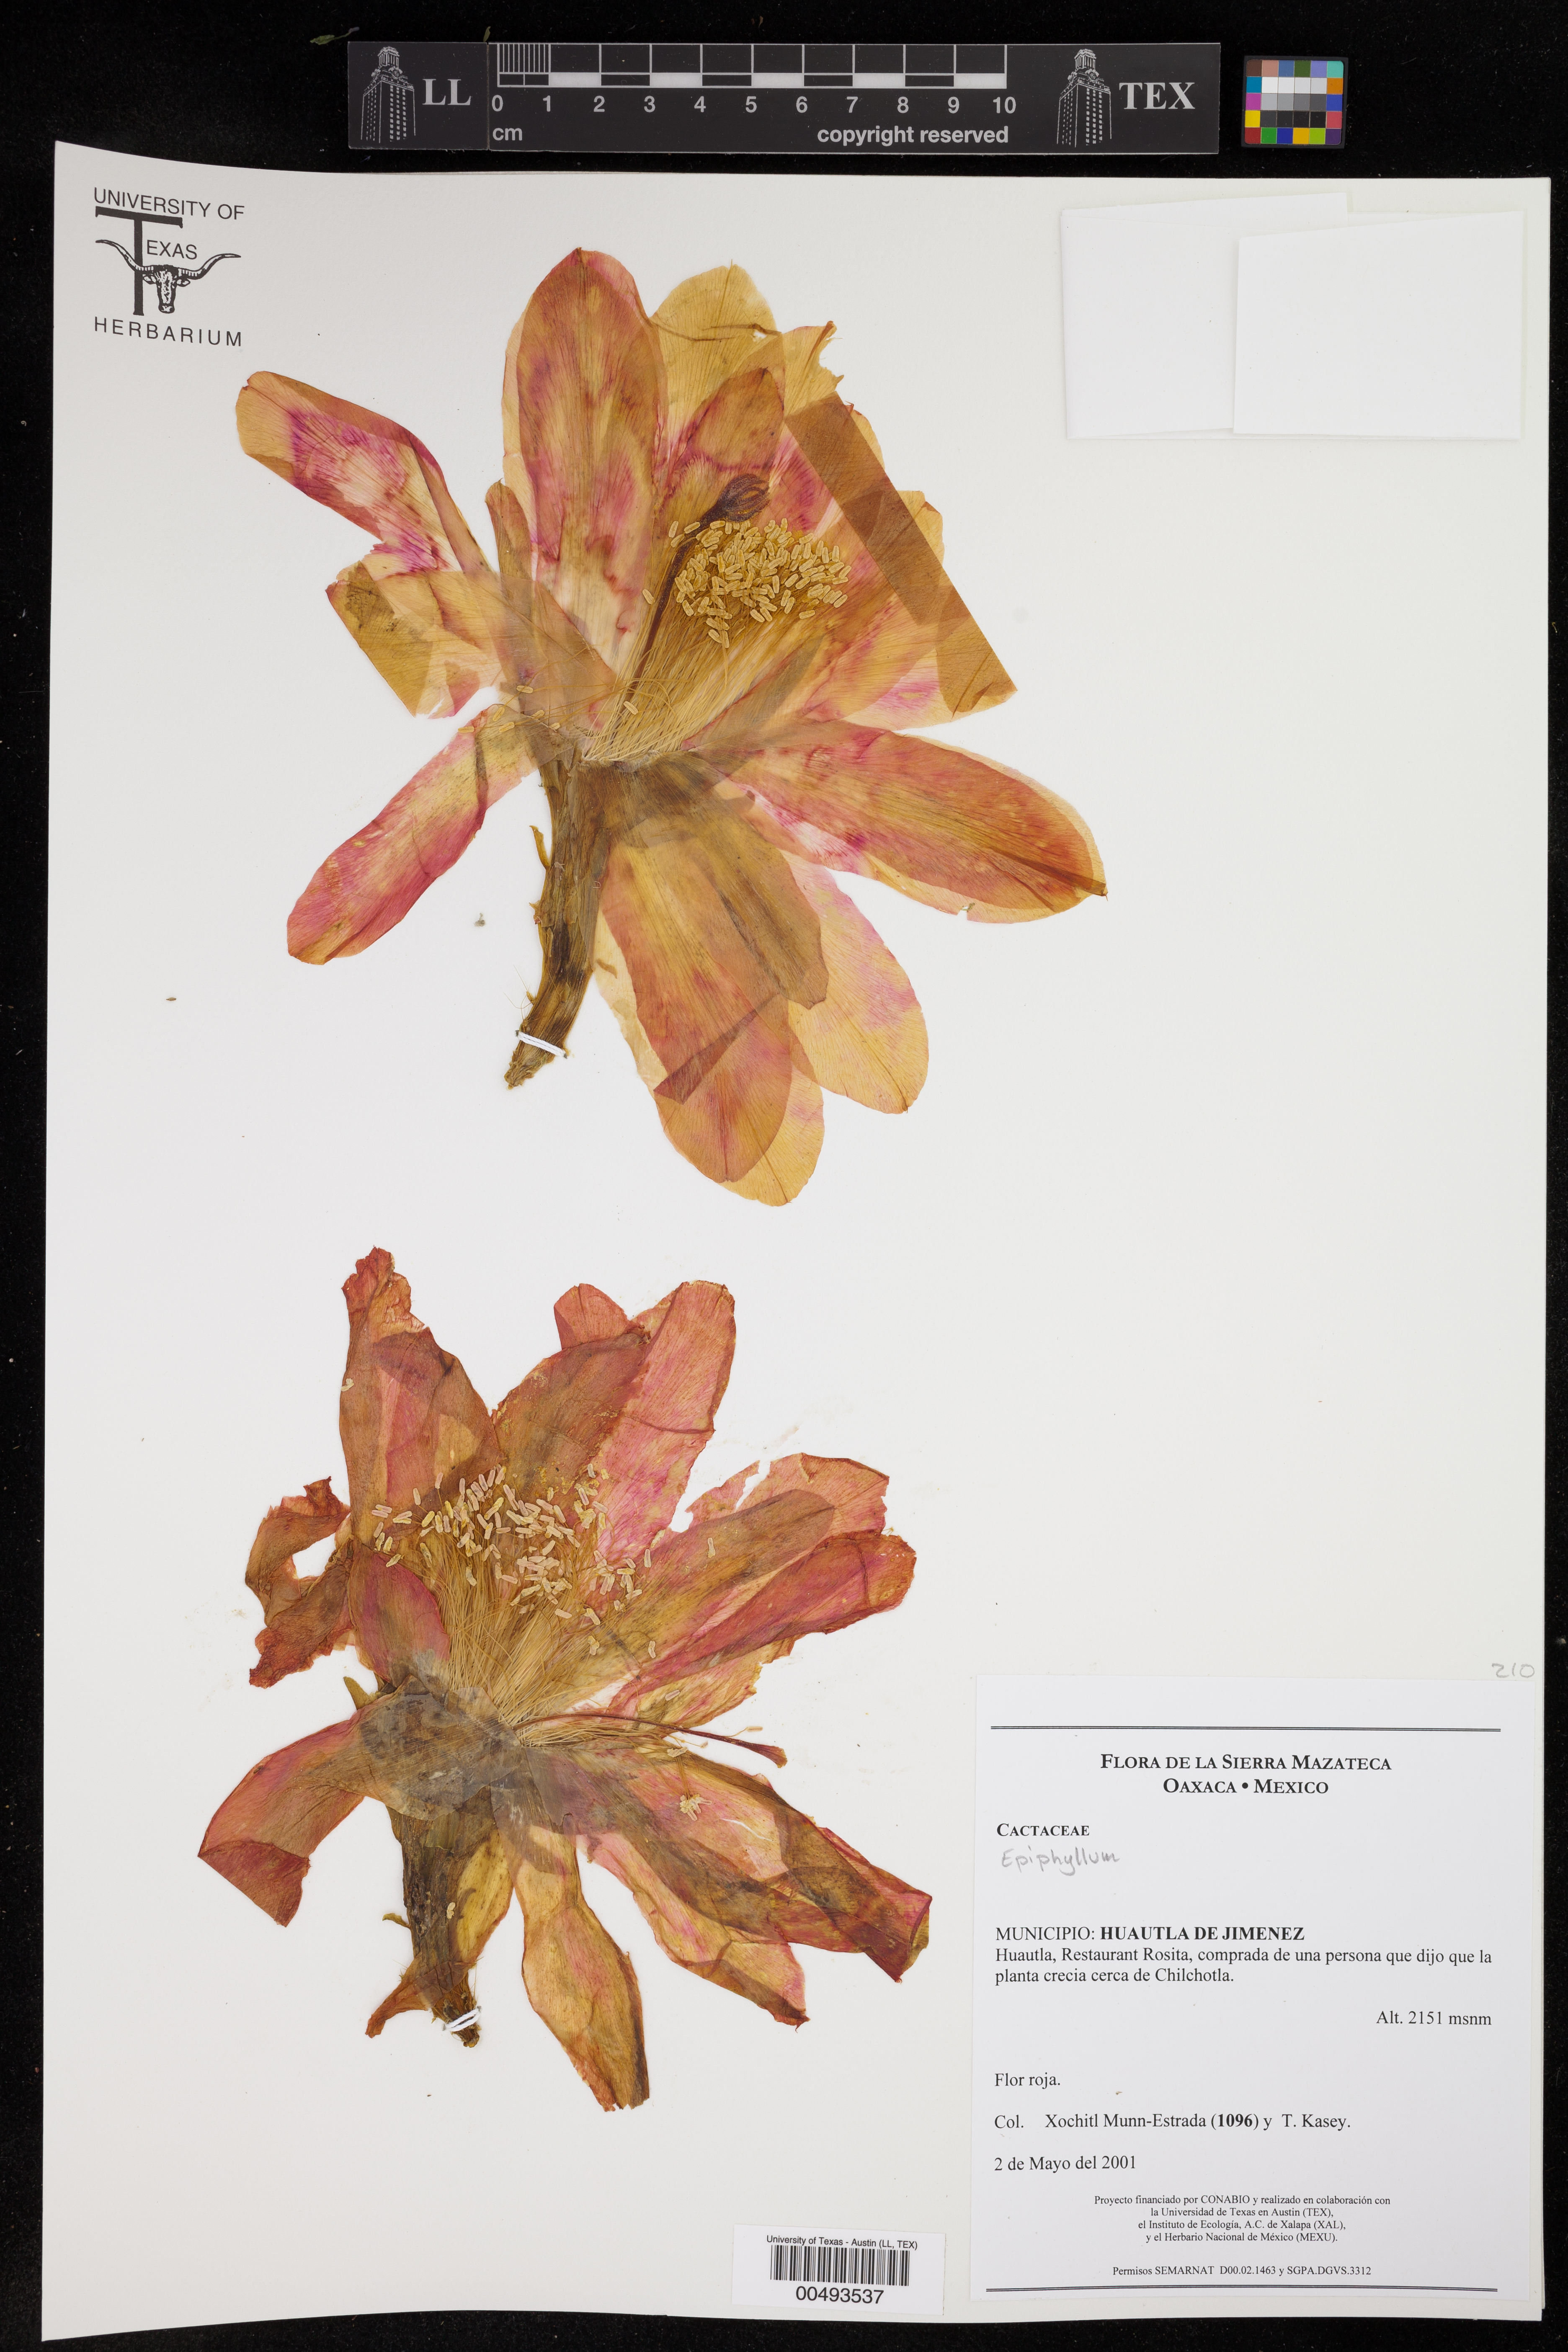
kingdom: Plantae
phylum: Tracheophyta
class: Magnoliopsida
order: Caryophyllales
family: Cactaceae
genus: Epiphyllum
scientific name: Epiphyllum
